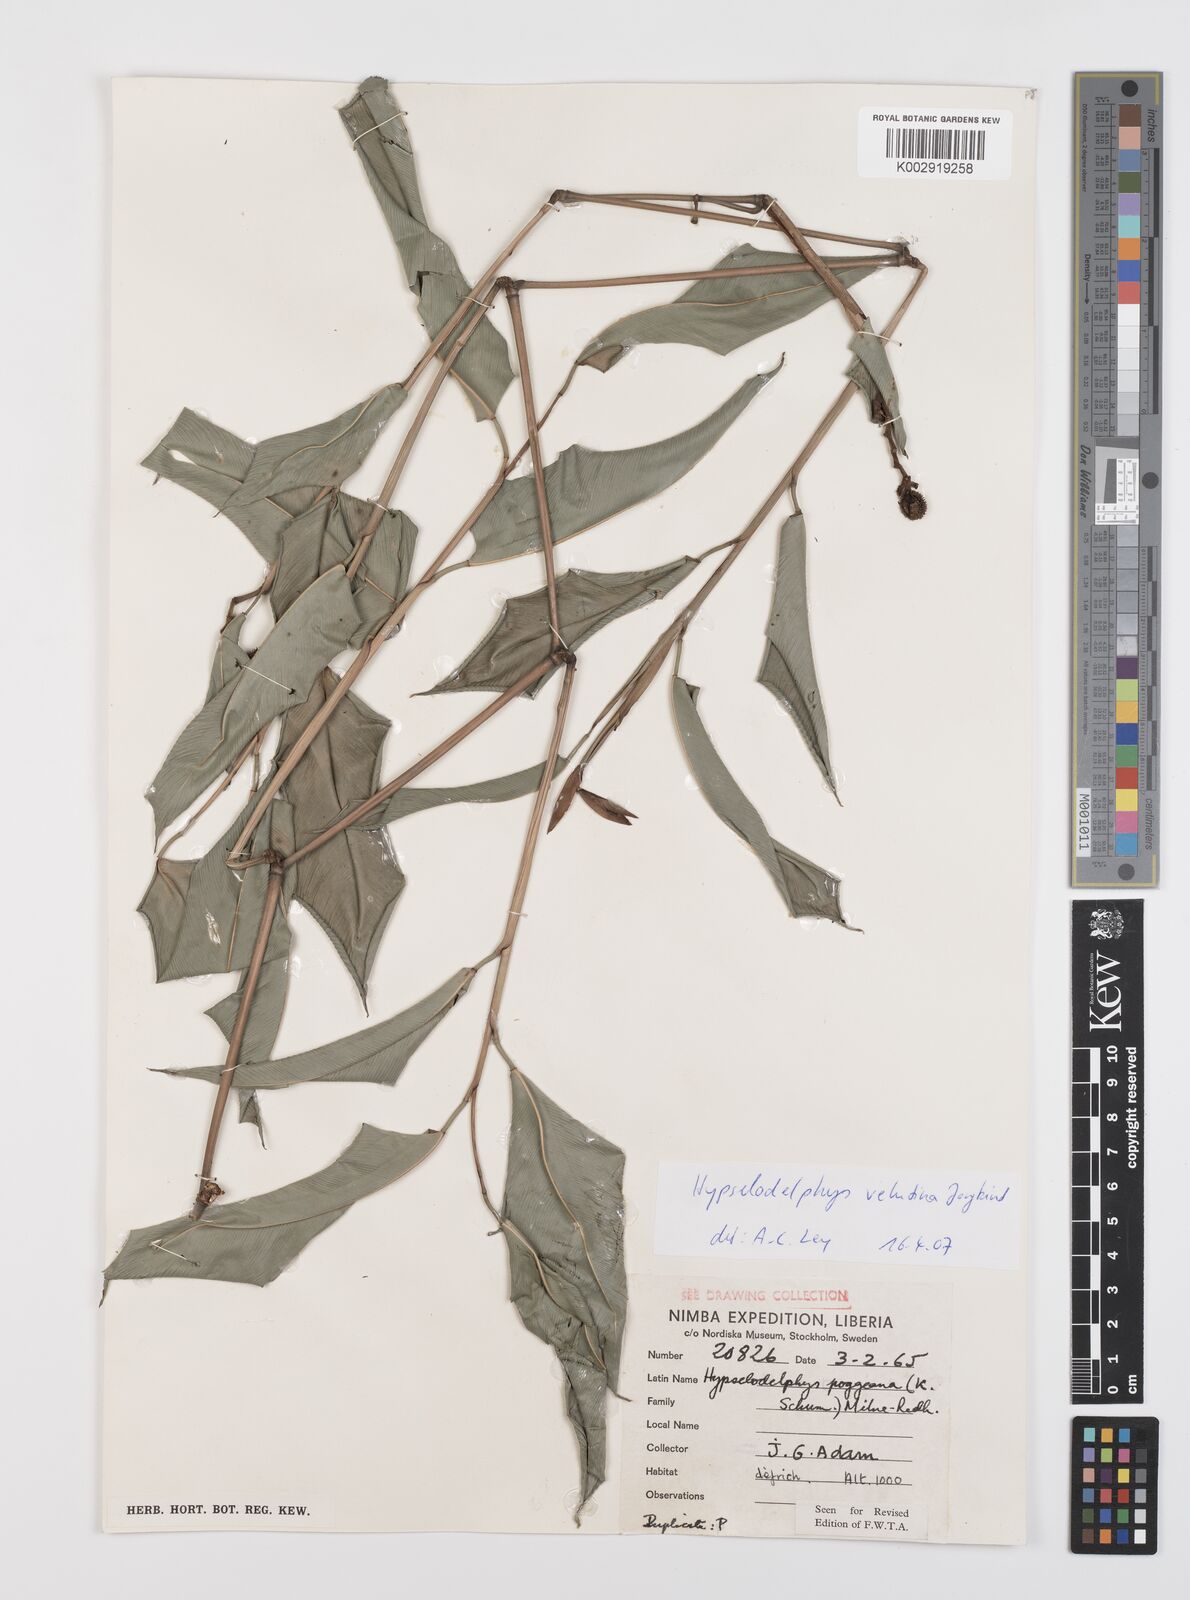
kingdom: Plantae
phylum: Tracheophyta
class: Liliopsida
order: Zingiberales
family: Marantaceae
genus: Hypselodelphys
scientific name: Hypselodelphys velutina
